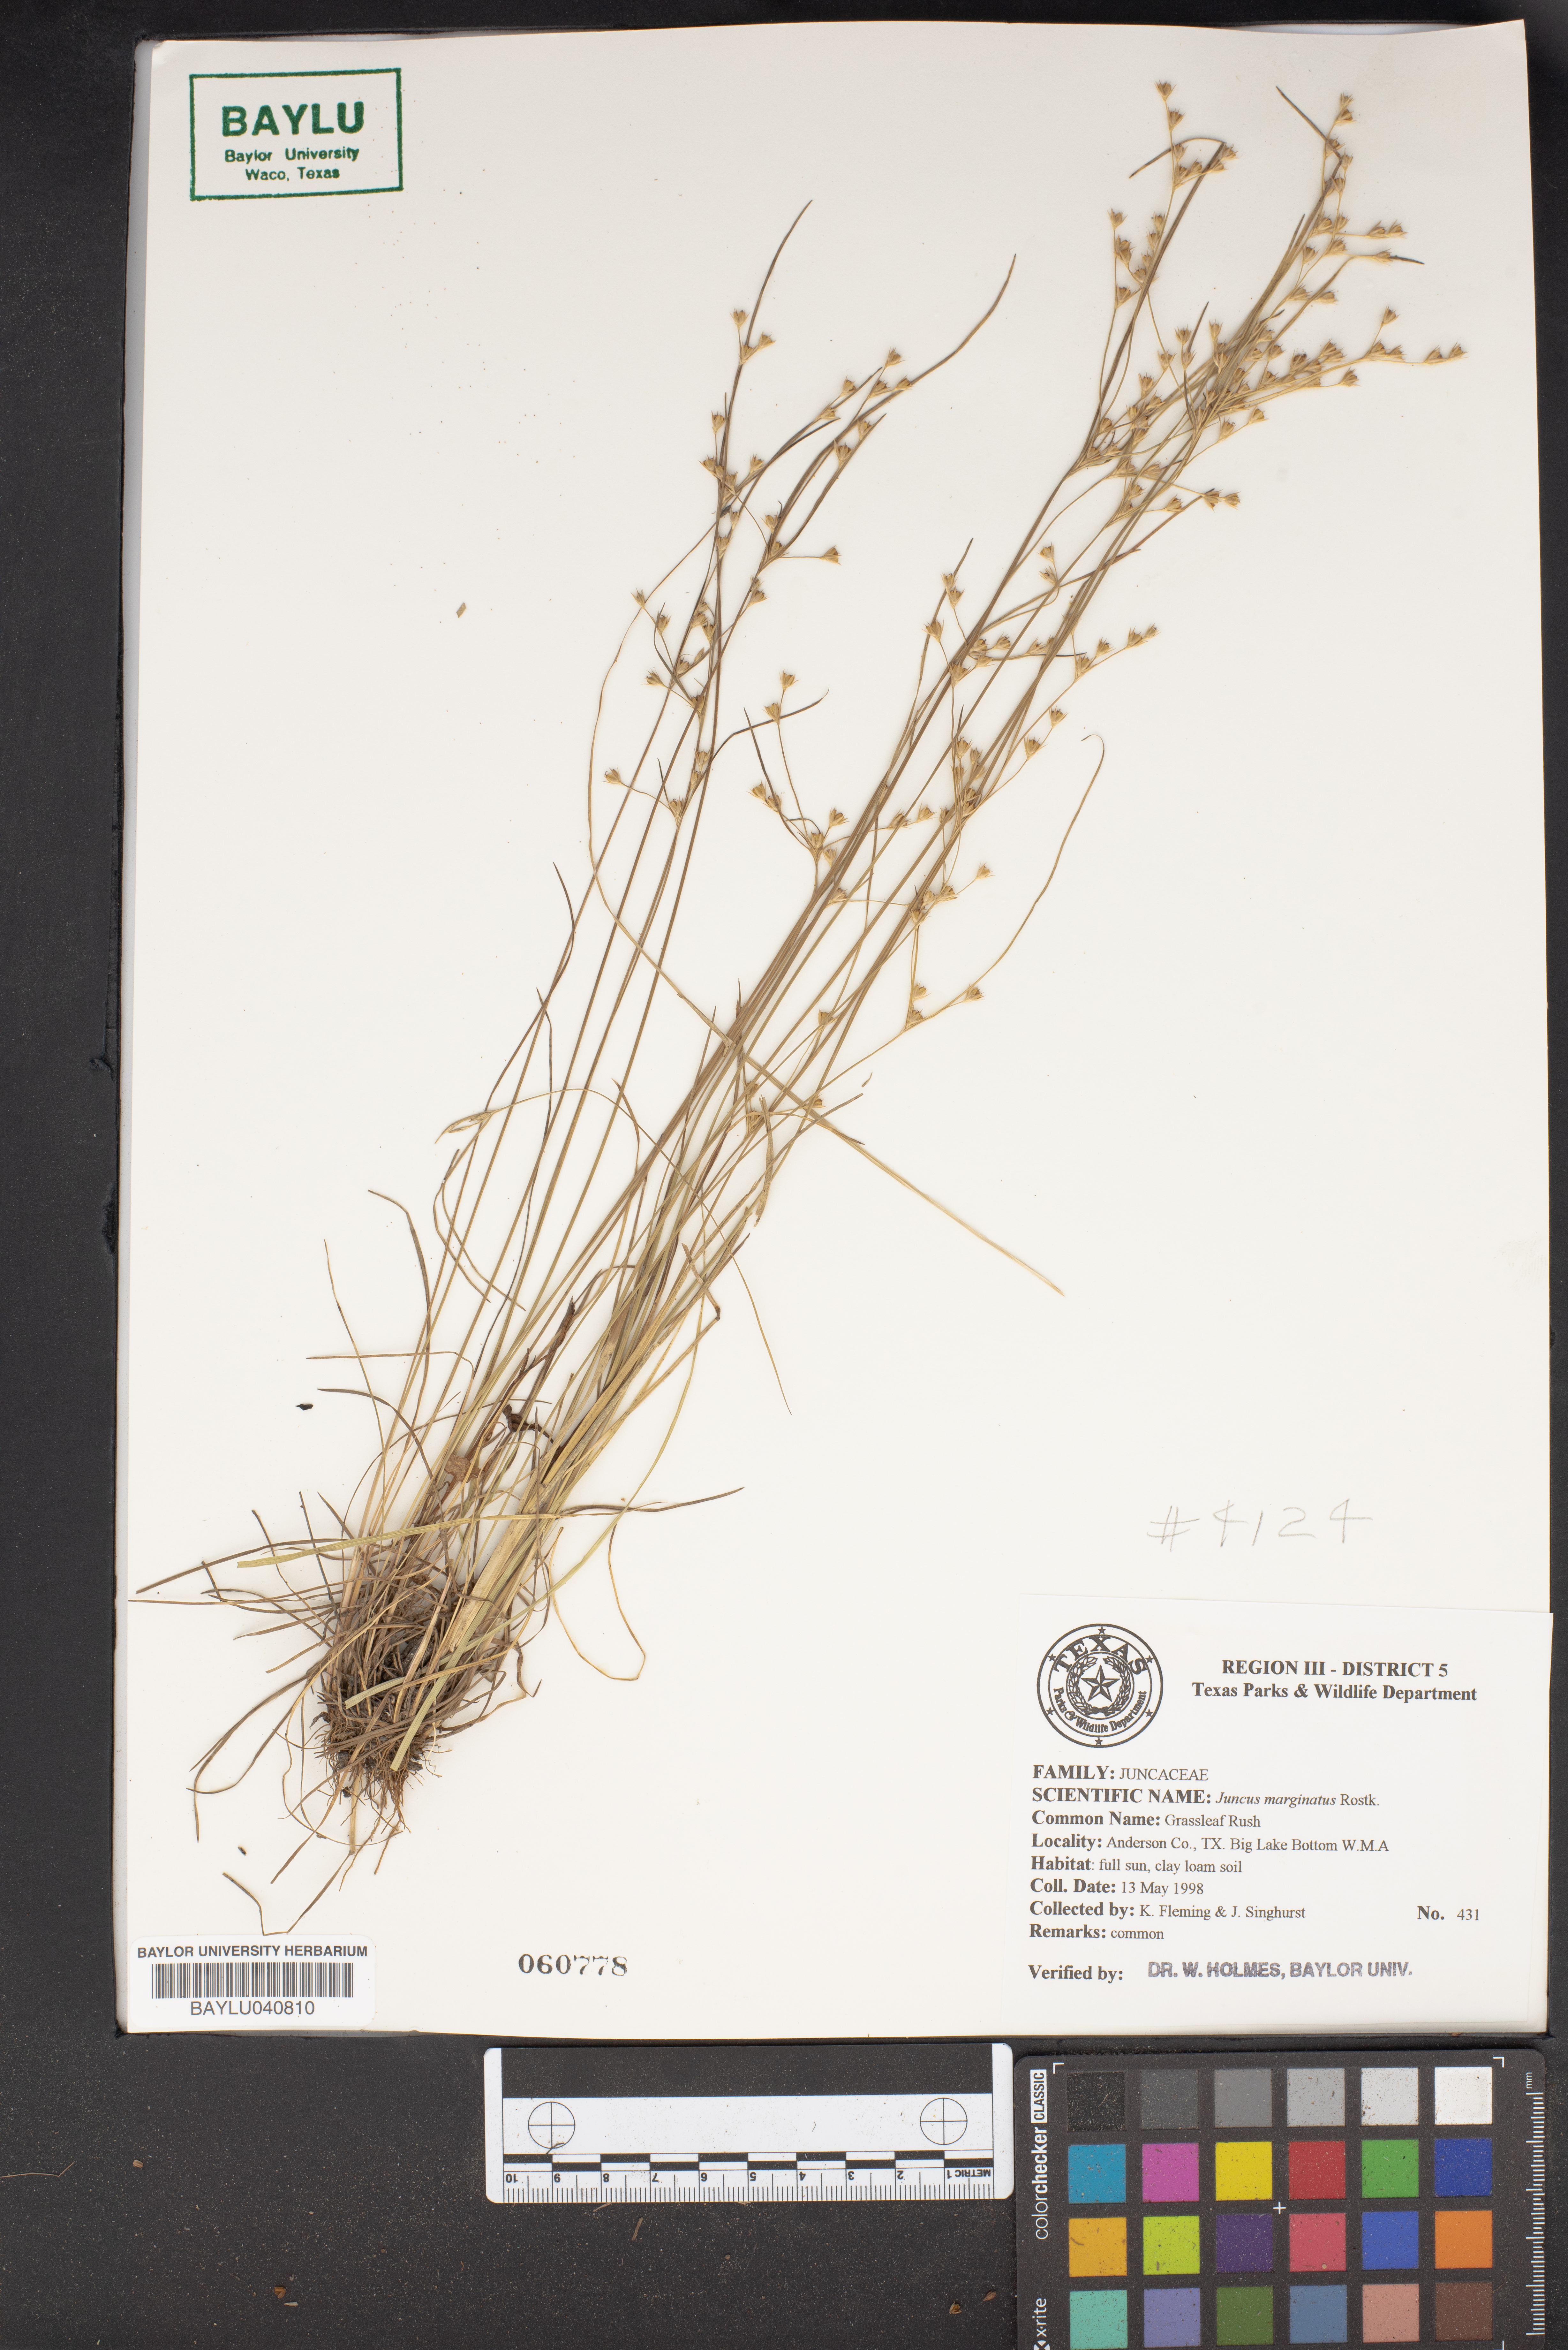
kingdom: Plantae
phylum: Tracheophyta
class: Liliopsida
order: Poales
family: Juncaceae
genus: Juncus
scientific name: Juncus marginatus
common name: Grass-leaf rush
